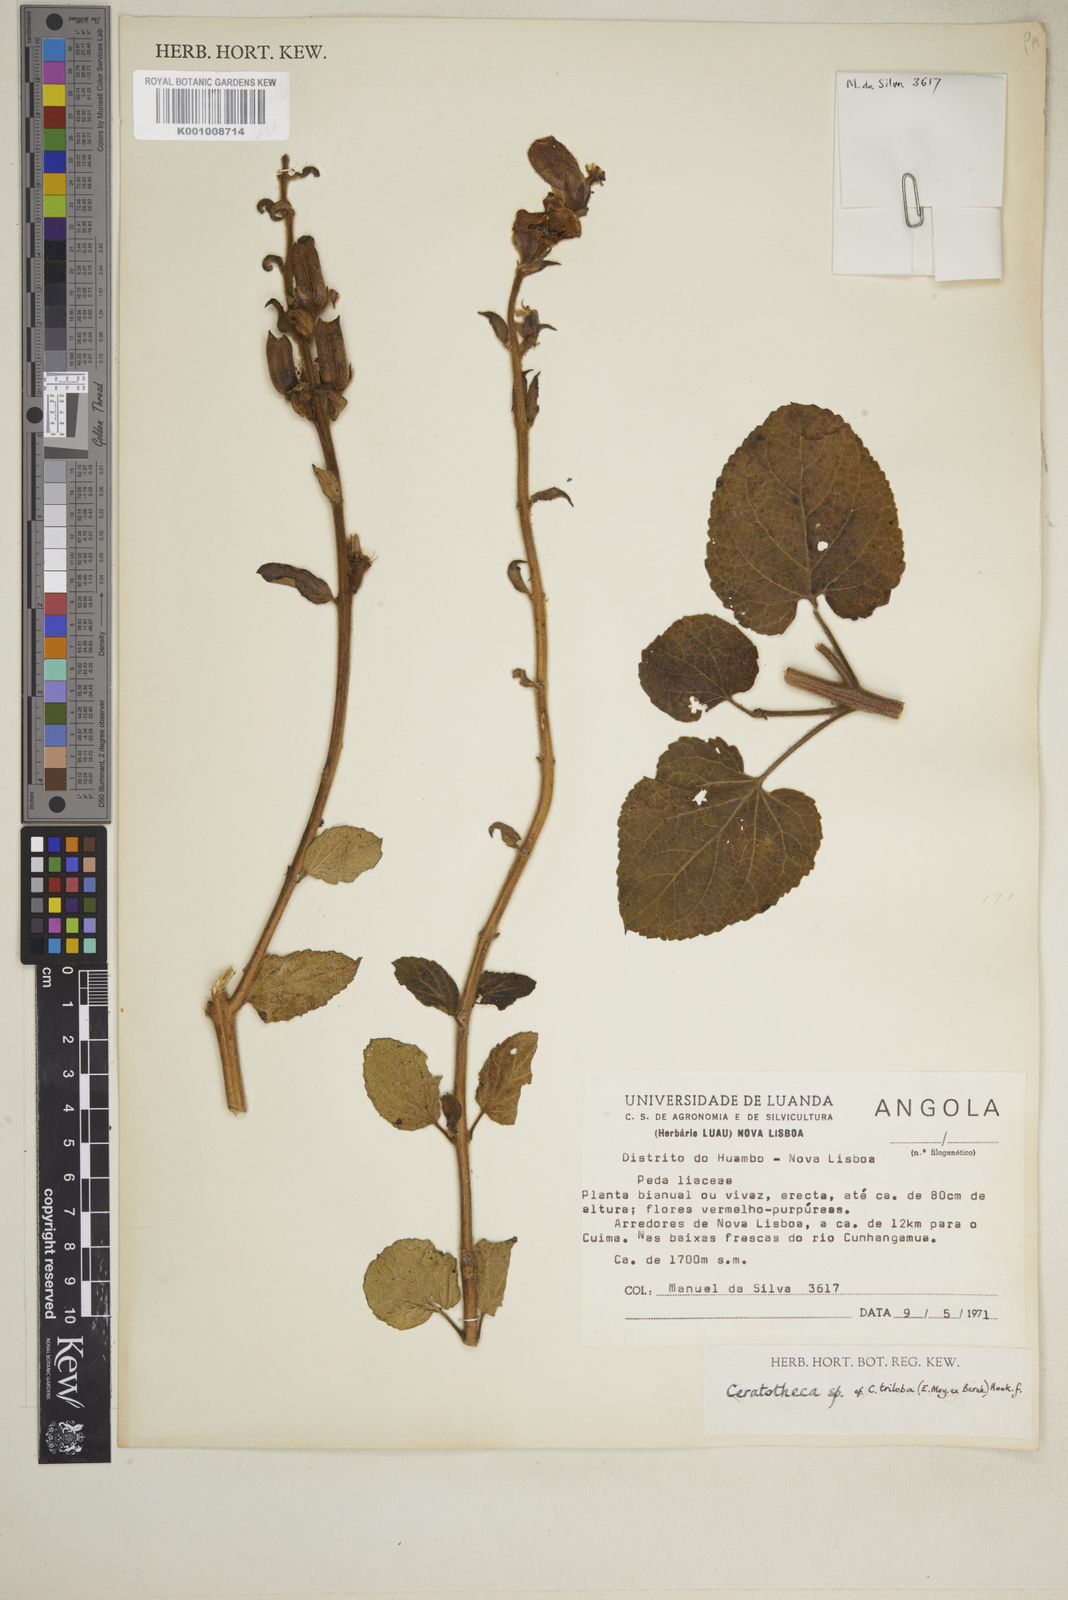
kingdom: Plantae
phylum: Tracheophyta
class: Magnoliopsida
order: Lamiales
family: Pedaliaceae
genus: Sesamum
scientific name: Sesamum trilobum
